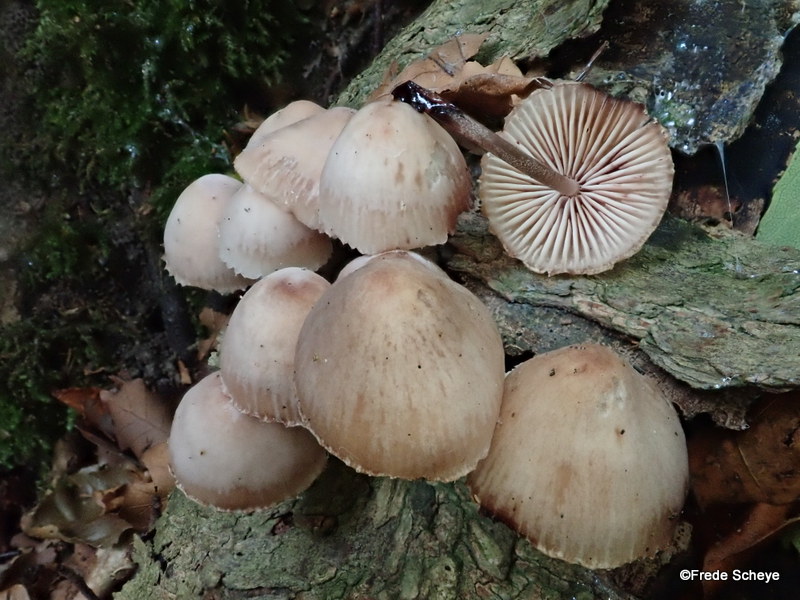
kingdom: Fungi
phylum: Basidiomycota
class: Agaricomycetes
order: Agaricales
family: Mycenaceae
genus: Mycena
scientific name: Mycena haematopus
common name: blødende huesvamp
